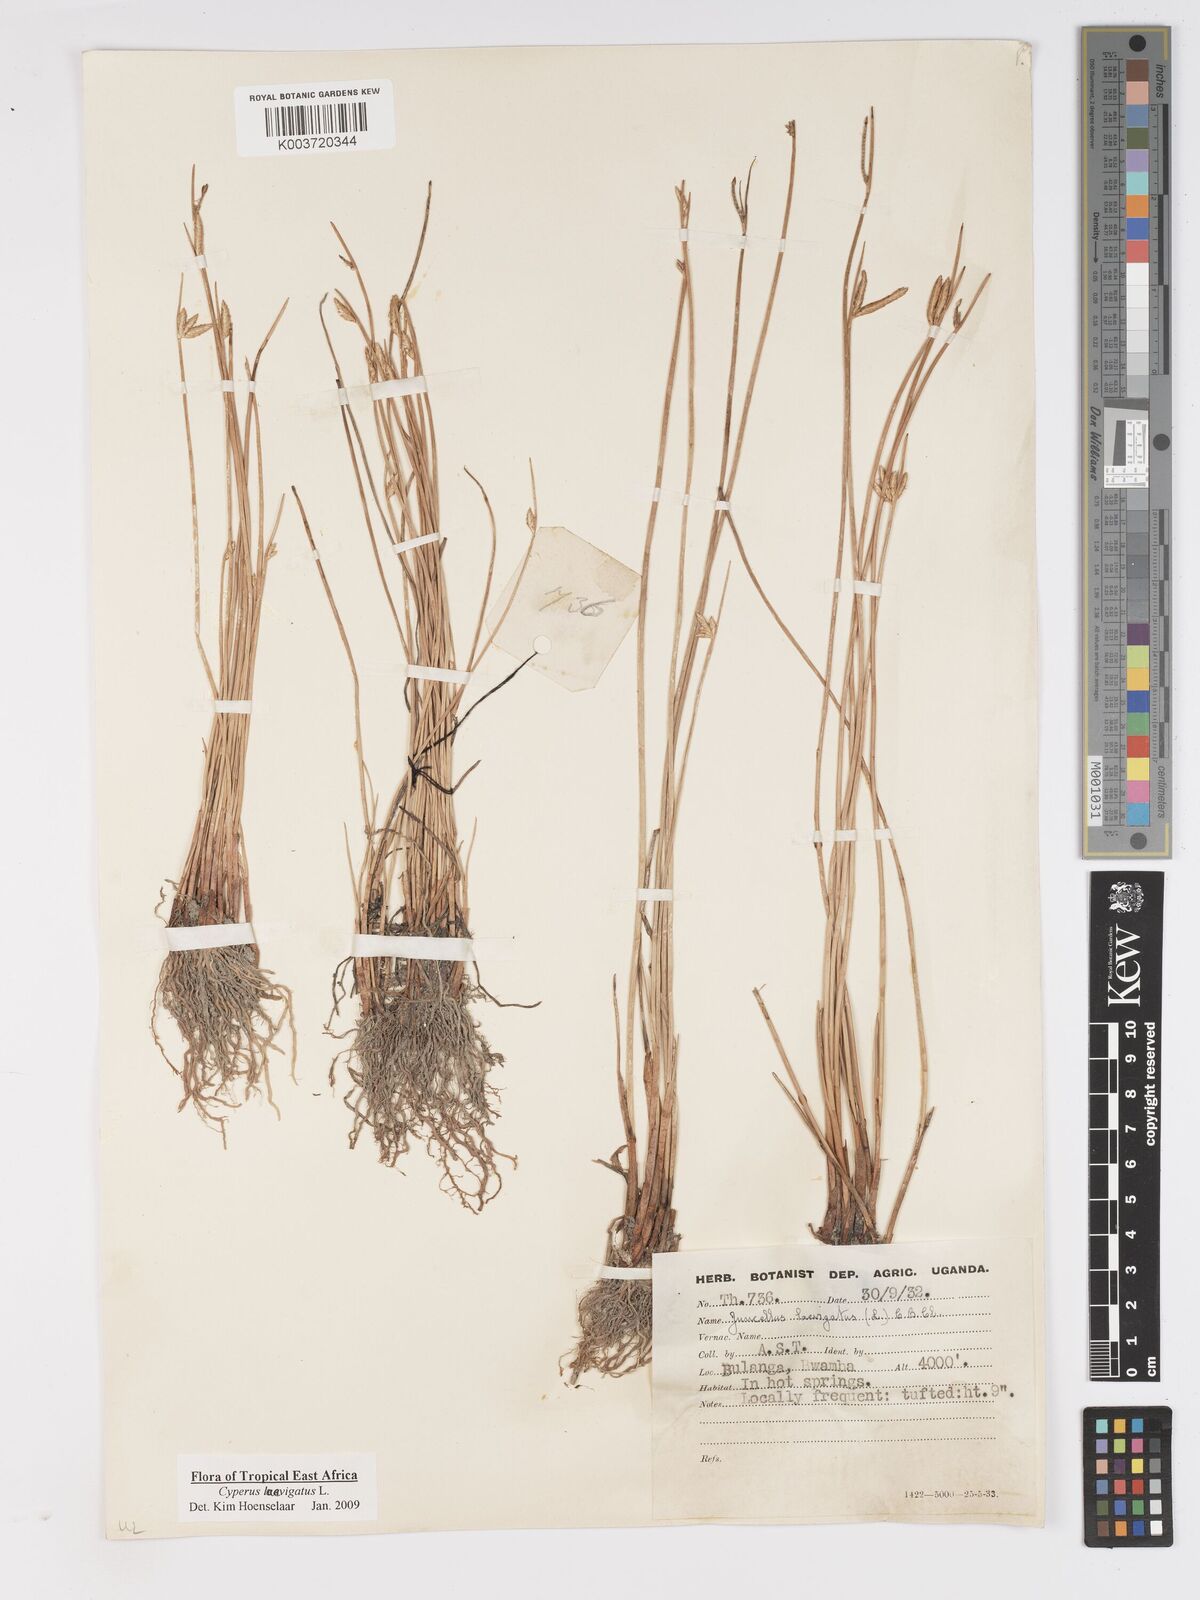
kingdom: Plantae
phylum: Tracheophyta
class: Liliopsida
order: Poales
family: Cyperaceae
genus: Cyperus
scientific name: Cyperus laevigatus
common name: Smooth flat sedge
